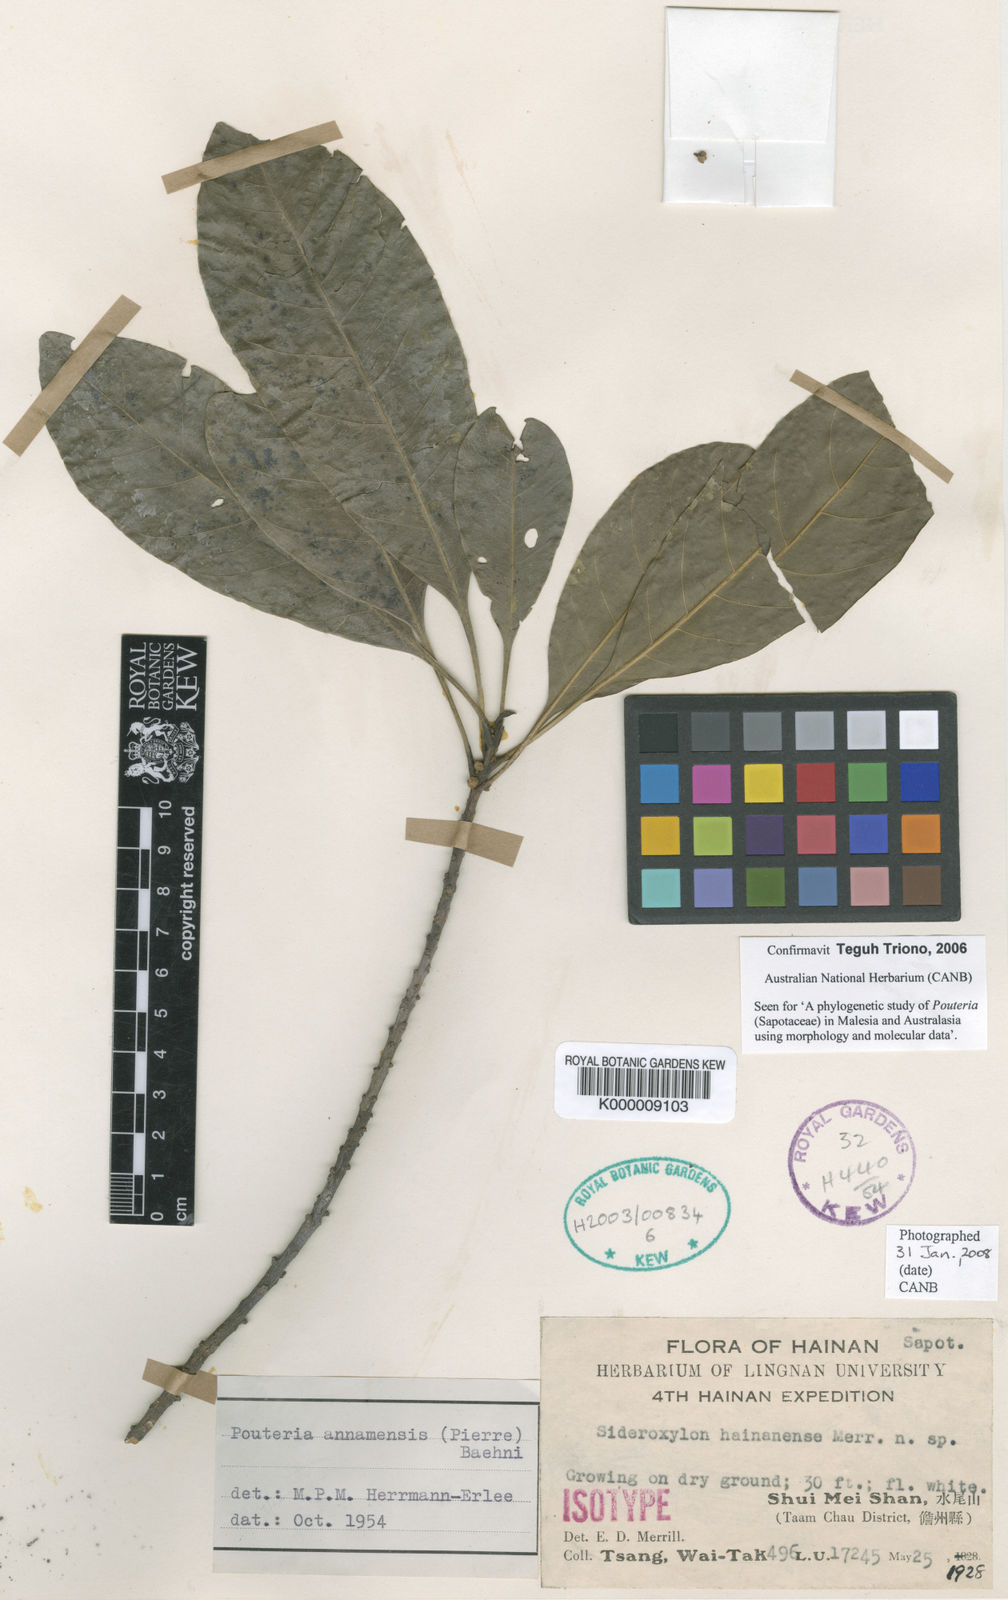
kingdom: Plantae
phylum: Tracheophyta
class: Magnoliopsida
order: Ericales
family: Sapotaceae
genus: Planchonella
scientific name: Planchonella grandifolia
